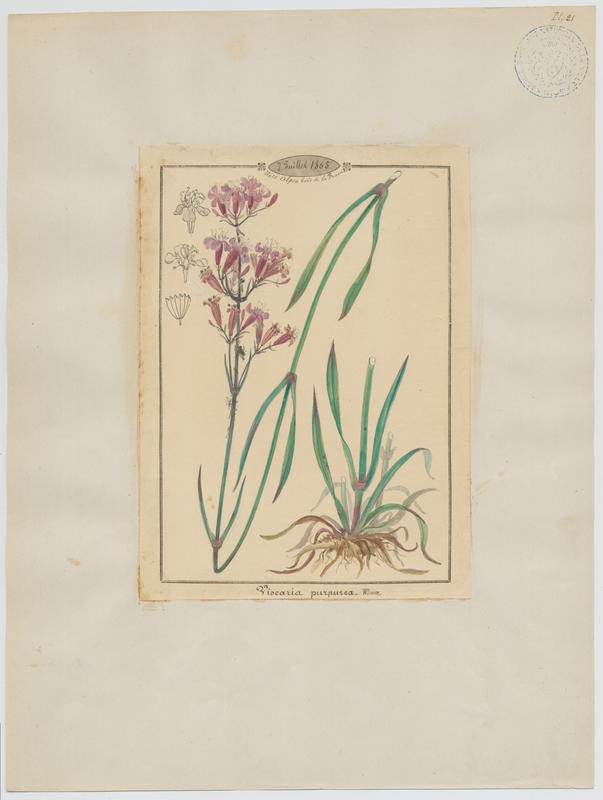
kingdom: Plantae
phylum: Tracheophyta
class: Magnoliopsida
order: Caryophyllales
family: Caryophyllaceae
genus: Viscaria
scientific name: Viscaria vulgaris
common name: Clammy campion
